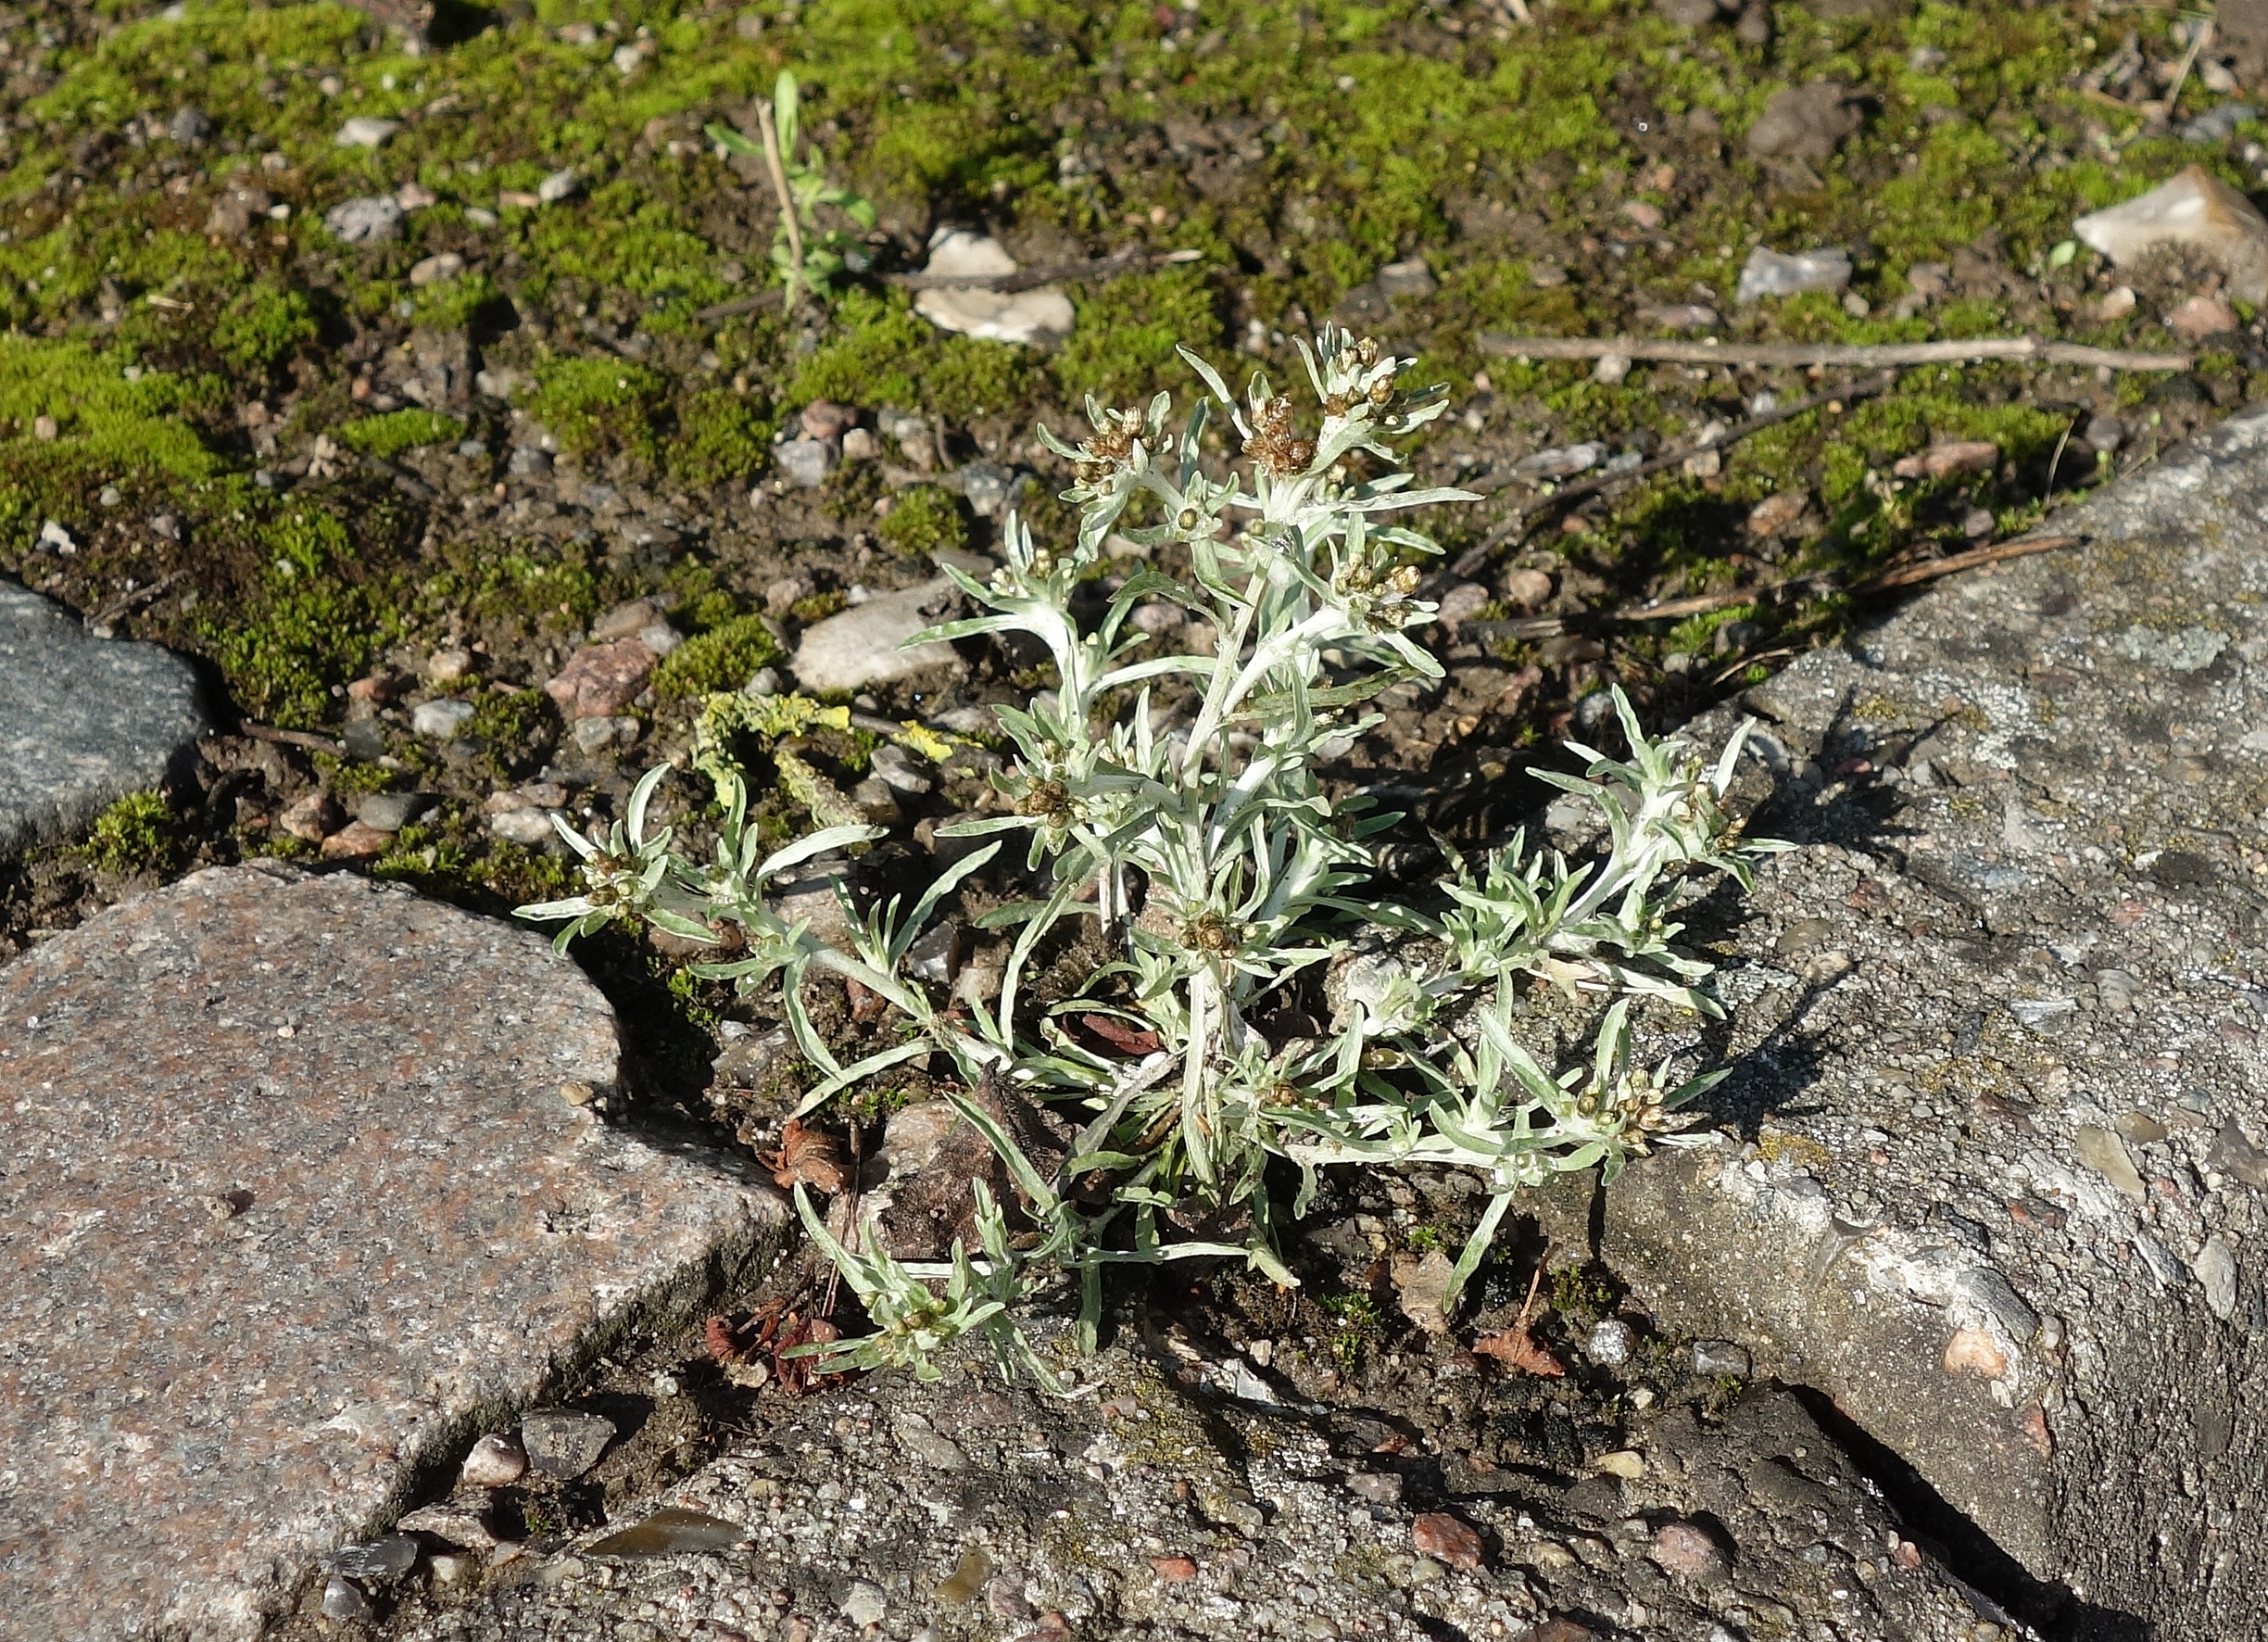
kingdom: Plantae
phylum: Tracheophyta
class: Magnoliopsida
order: Asterales
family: Asteraceae
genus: Gnaphalium
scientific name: Gnaphalium uliginosum
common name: Sump-evighedsblomst
